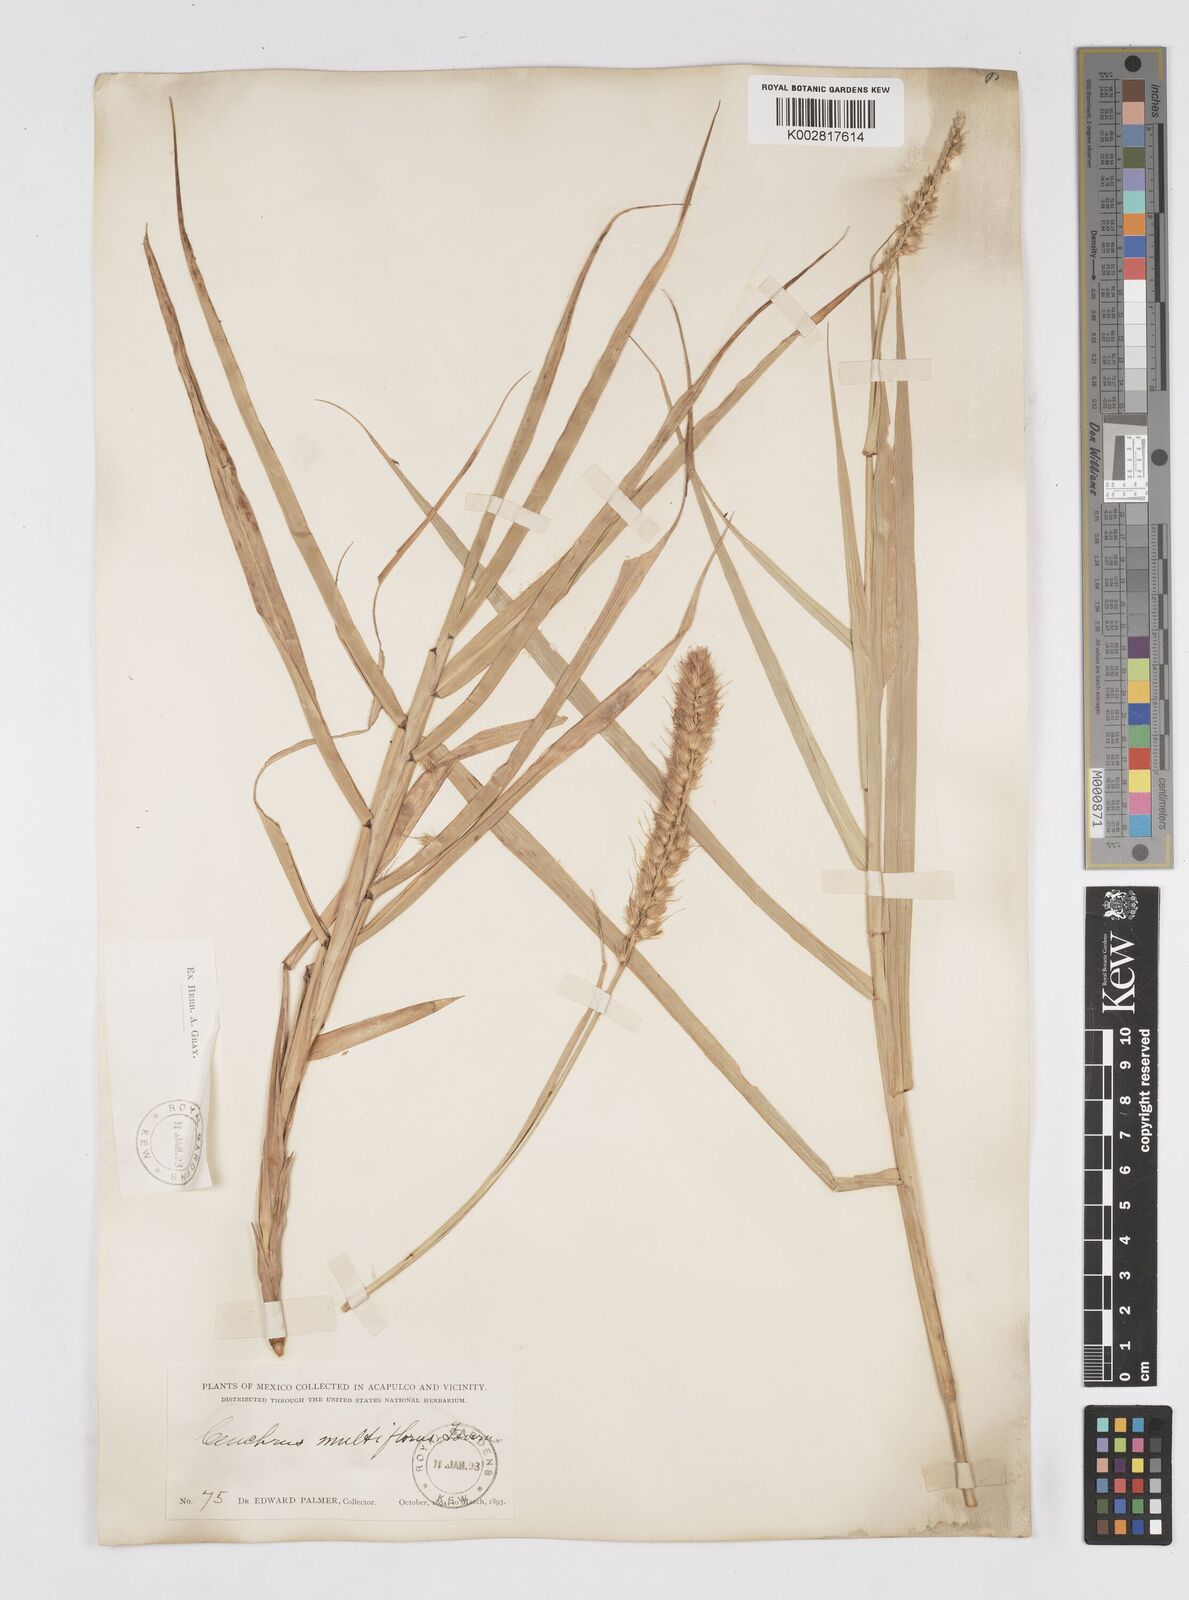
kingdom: Plantae
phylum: Tracheophyta
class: Liliopsida
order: Poales
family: Poaceae
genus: Cenchrus
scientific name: Cenchrus multiflorus
